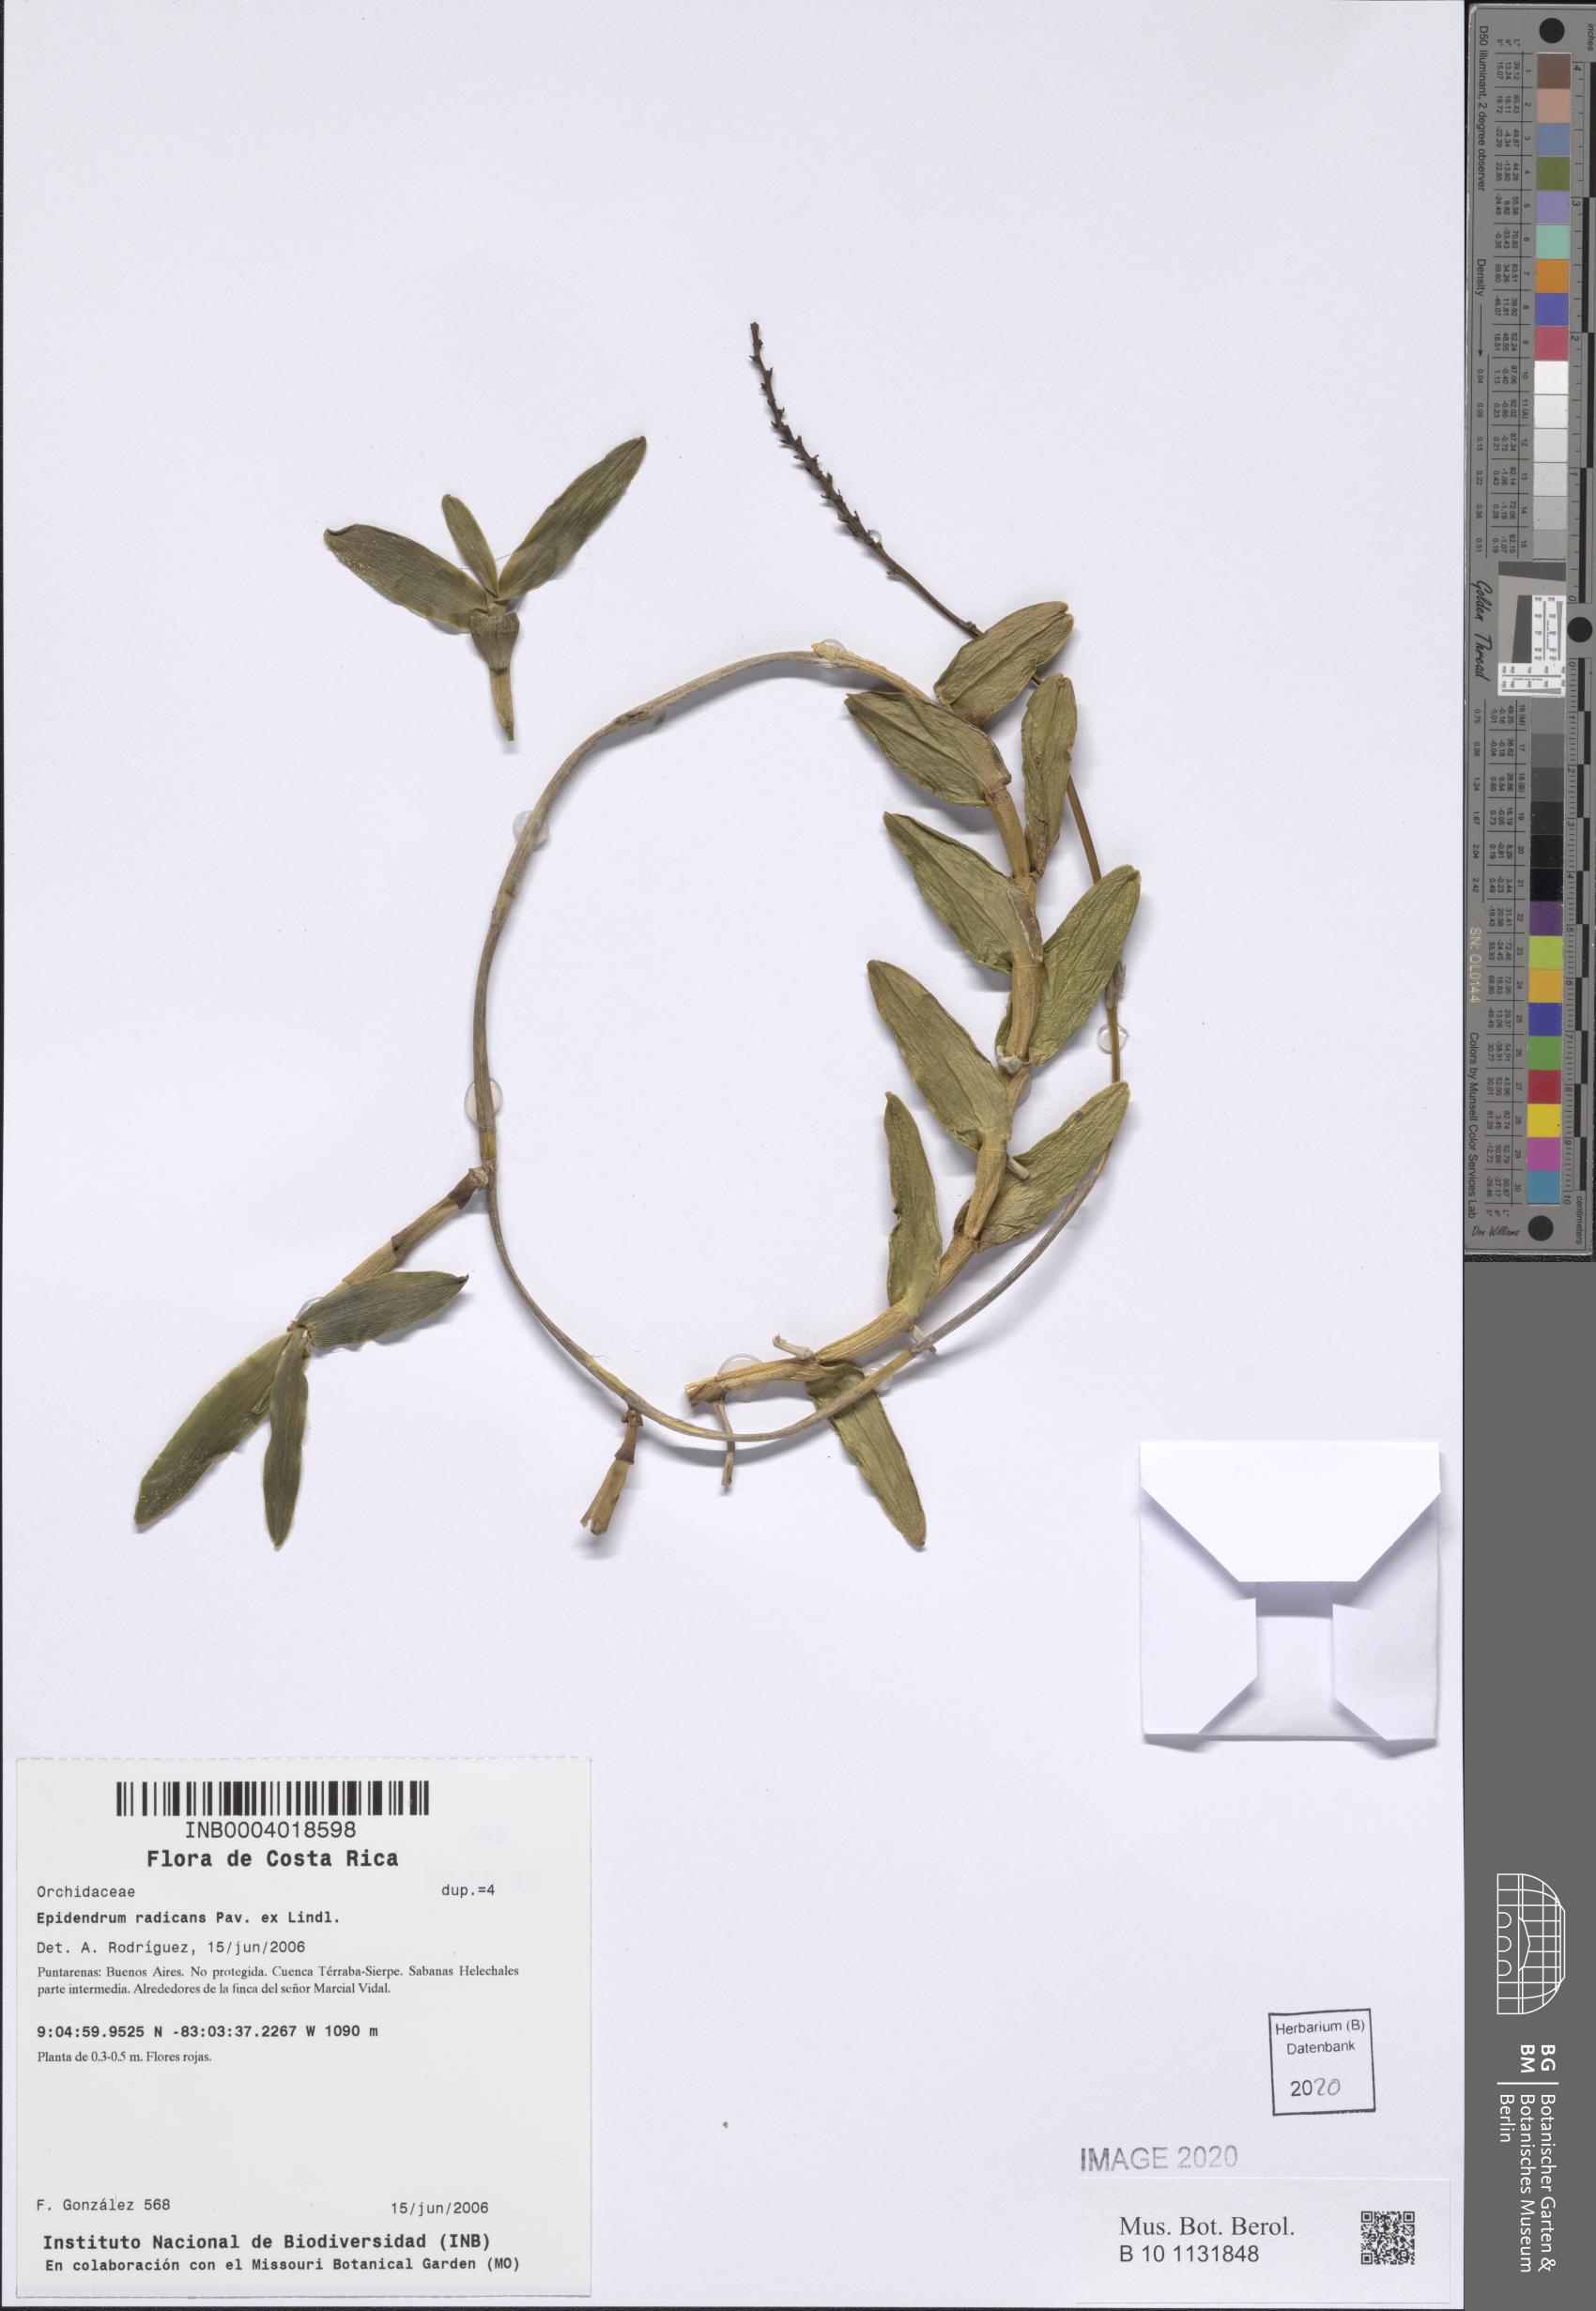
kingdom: Plantae
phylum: Tracheophyta
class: Liliopsida
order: Asparagales
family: Orchidaceae
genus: Epidendrum
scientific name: Epidendrum radicans
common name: Fire star orchid
